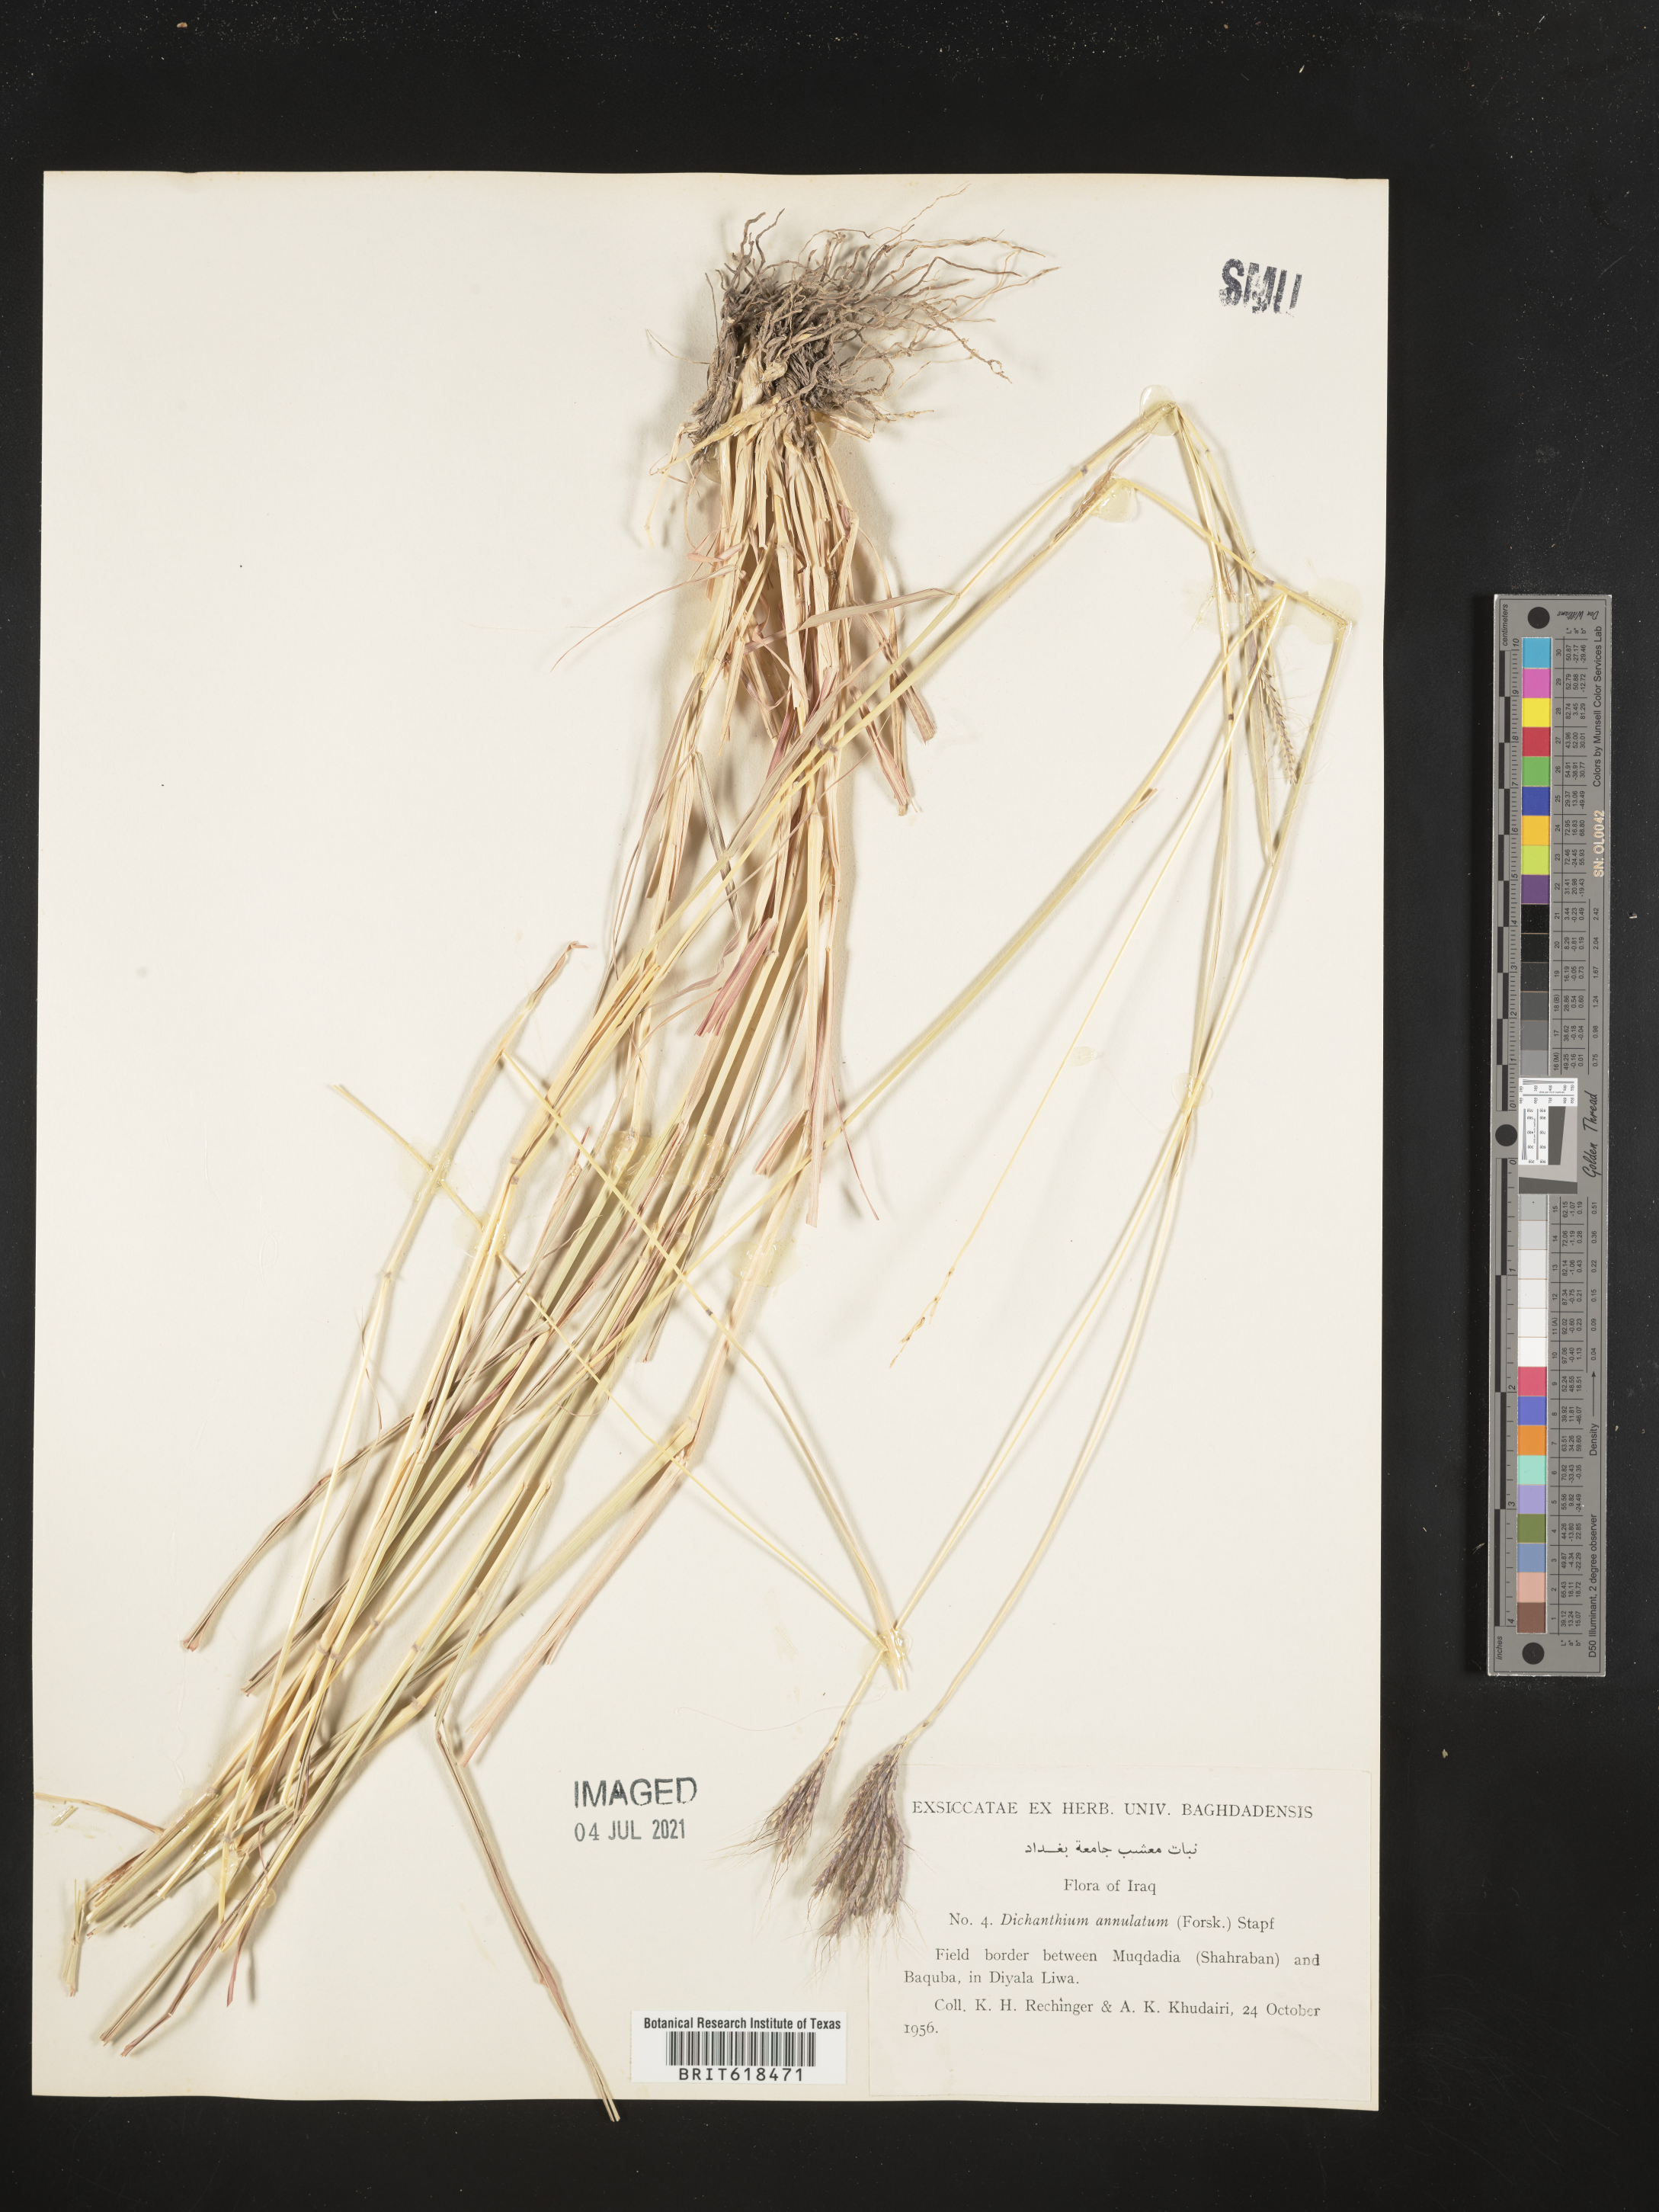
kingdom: Plantae
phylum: Tracheophyta
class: Liliopsida
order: Poales
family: Poaceae
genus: Dichanthium
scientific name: Dichanthium annulatum
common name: Kleberg's bluestem
